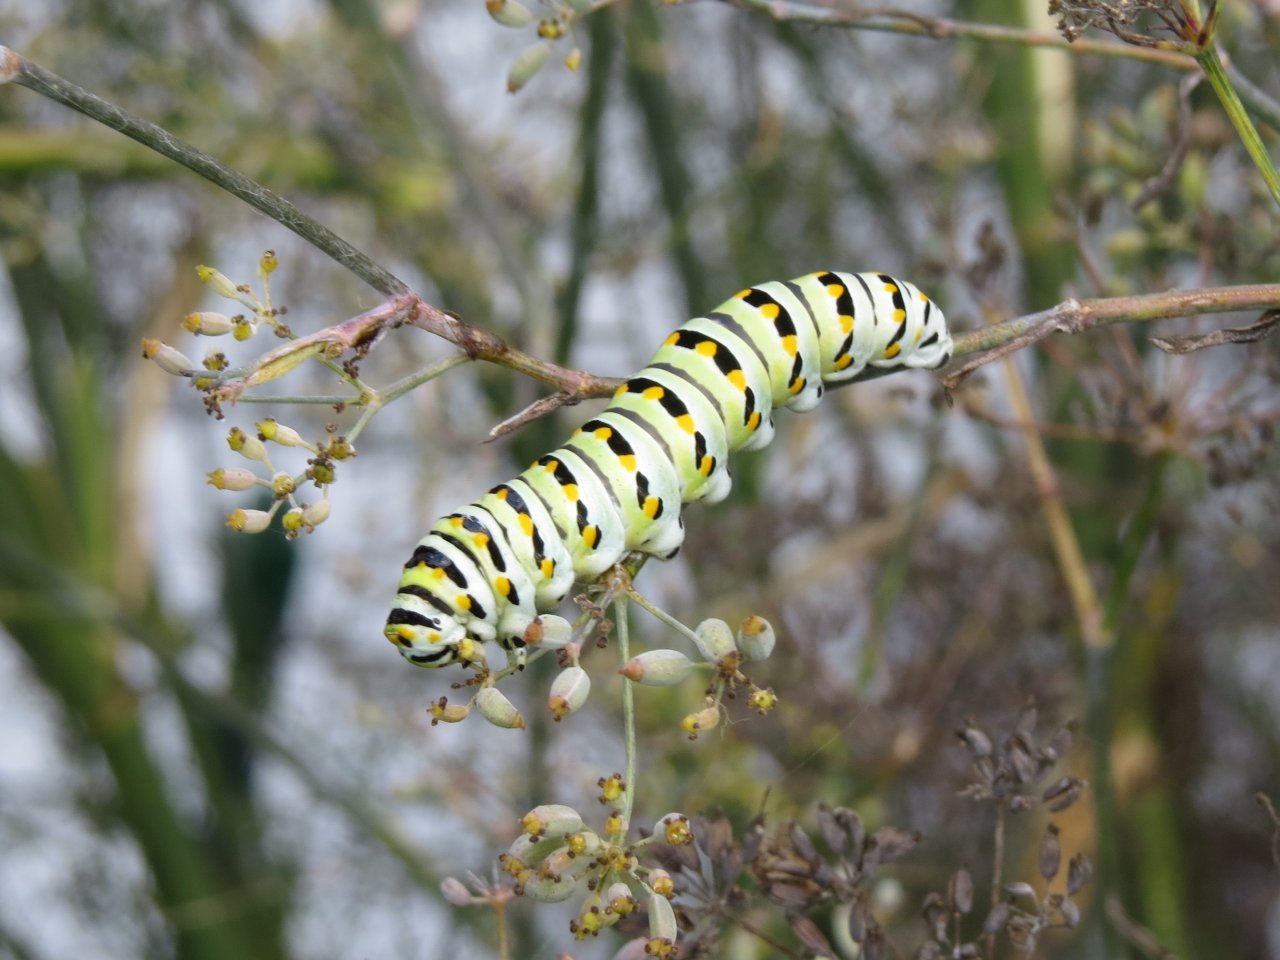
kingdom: Animalia
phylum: Arthropoda
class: Insecta
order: Lepidoptera
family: Papilionidae
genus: Papilio
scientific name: Papilio polyxenes
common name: Black Swallowtail
